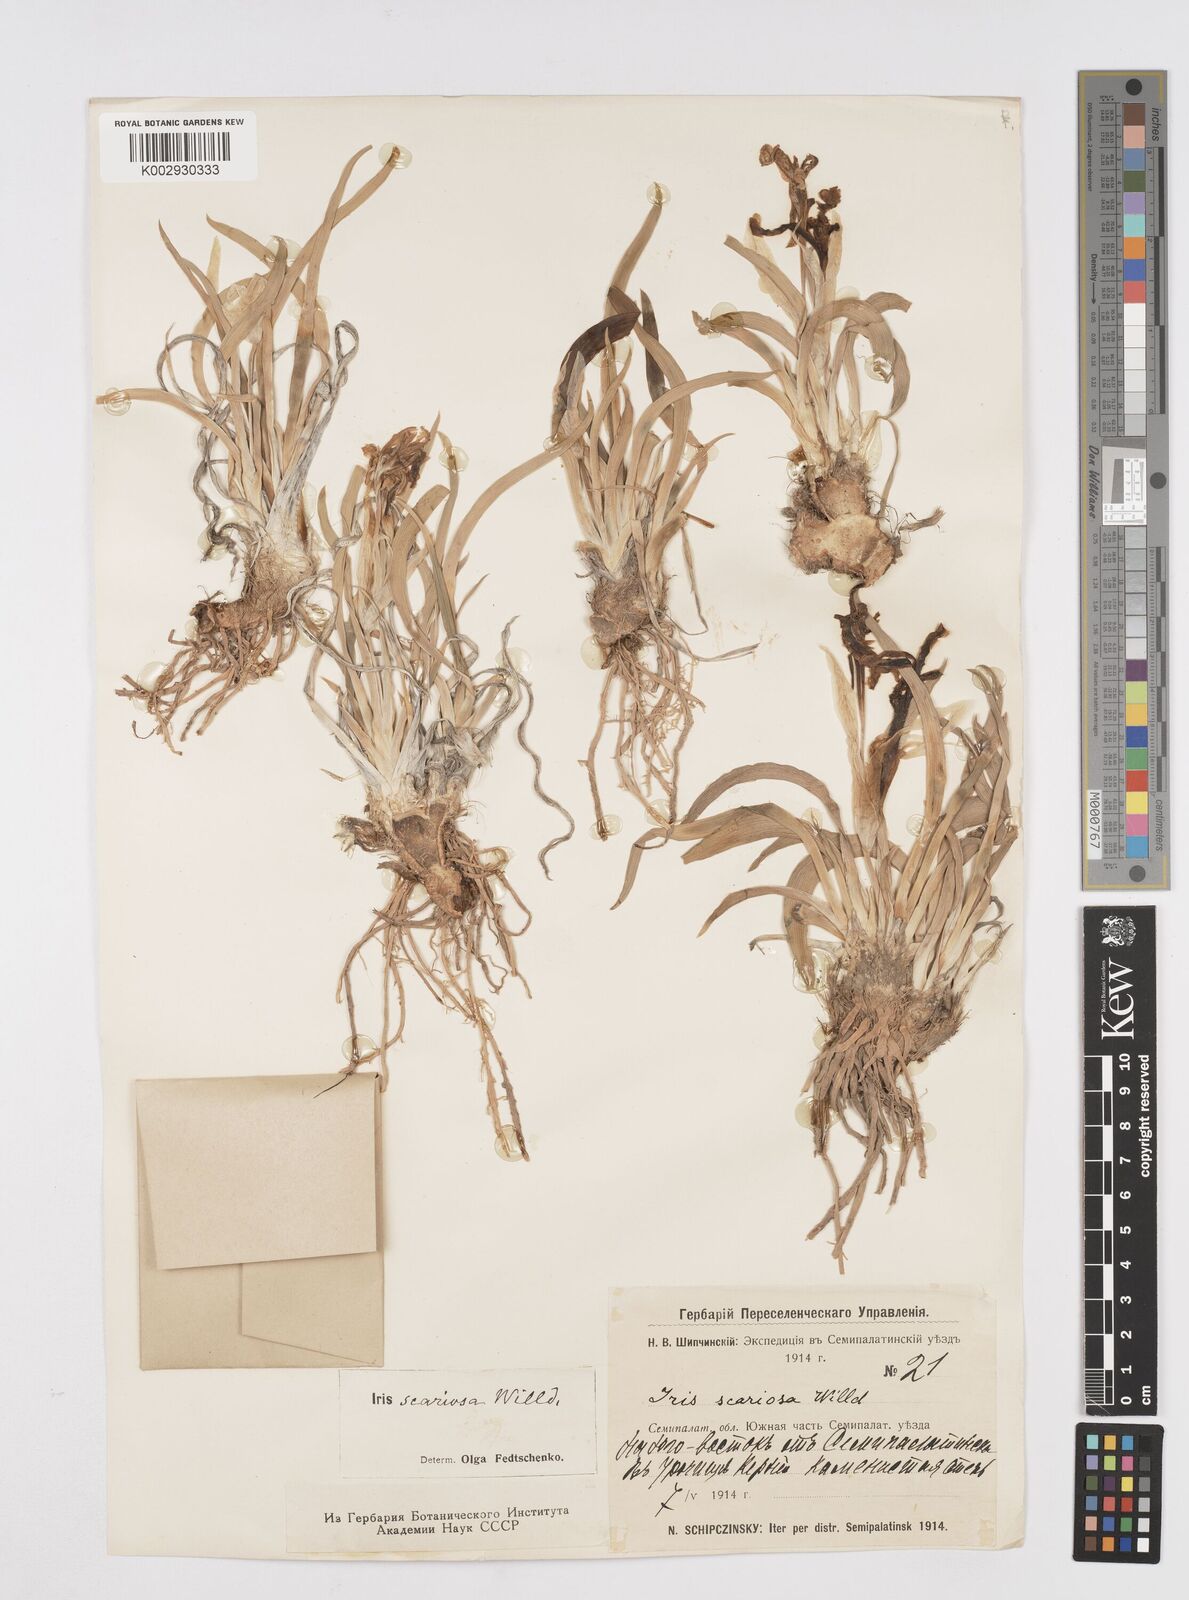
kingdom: Plantae
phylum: Tracheophyta
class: Liliopsida
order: Asparagales
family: Iridaceae
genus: Iris
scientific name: Iris scariosa
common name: Membrane-bract iris
